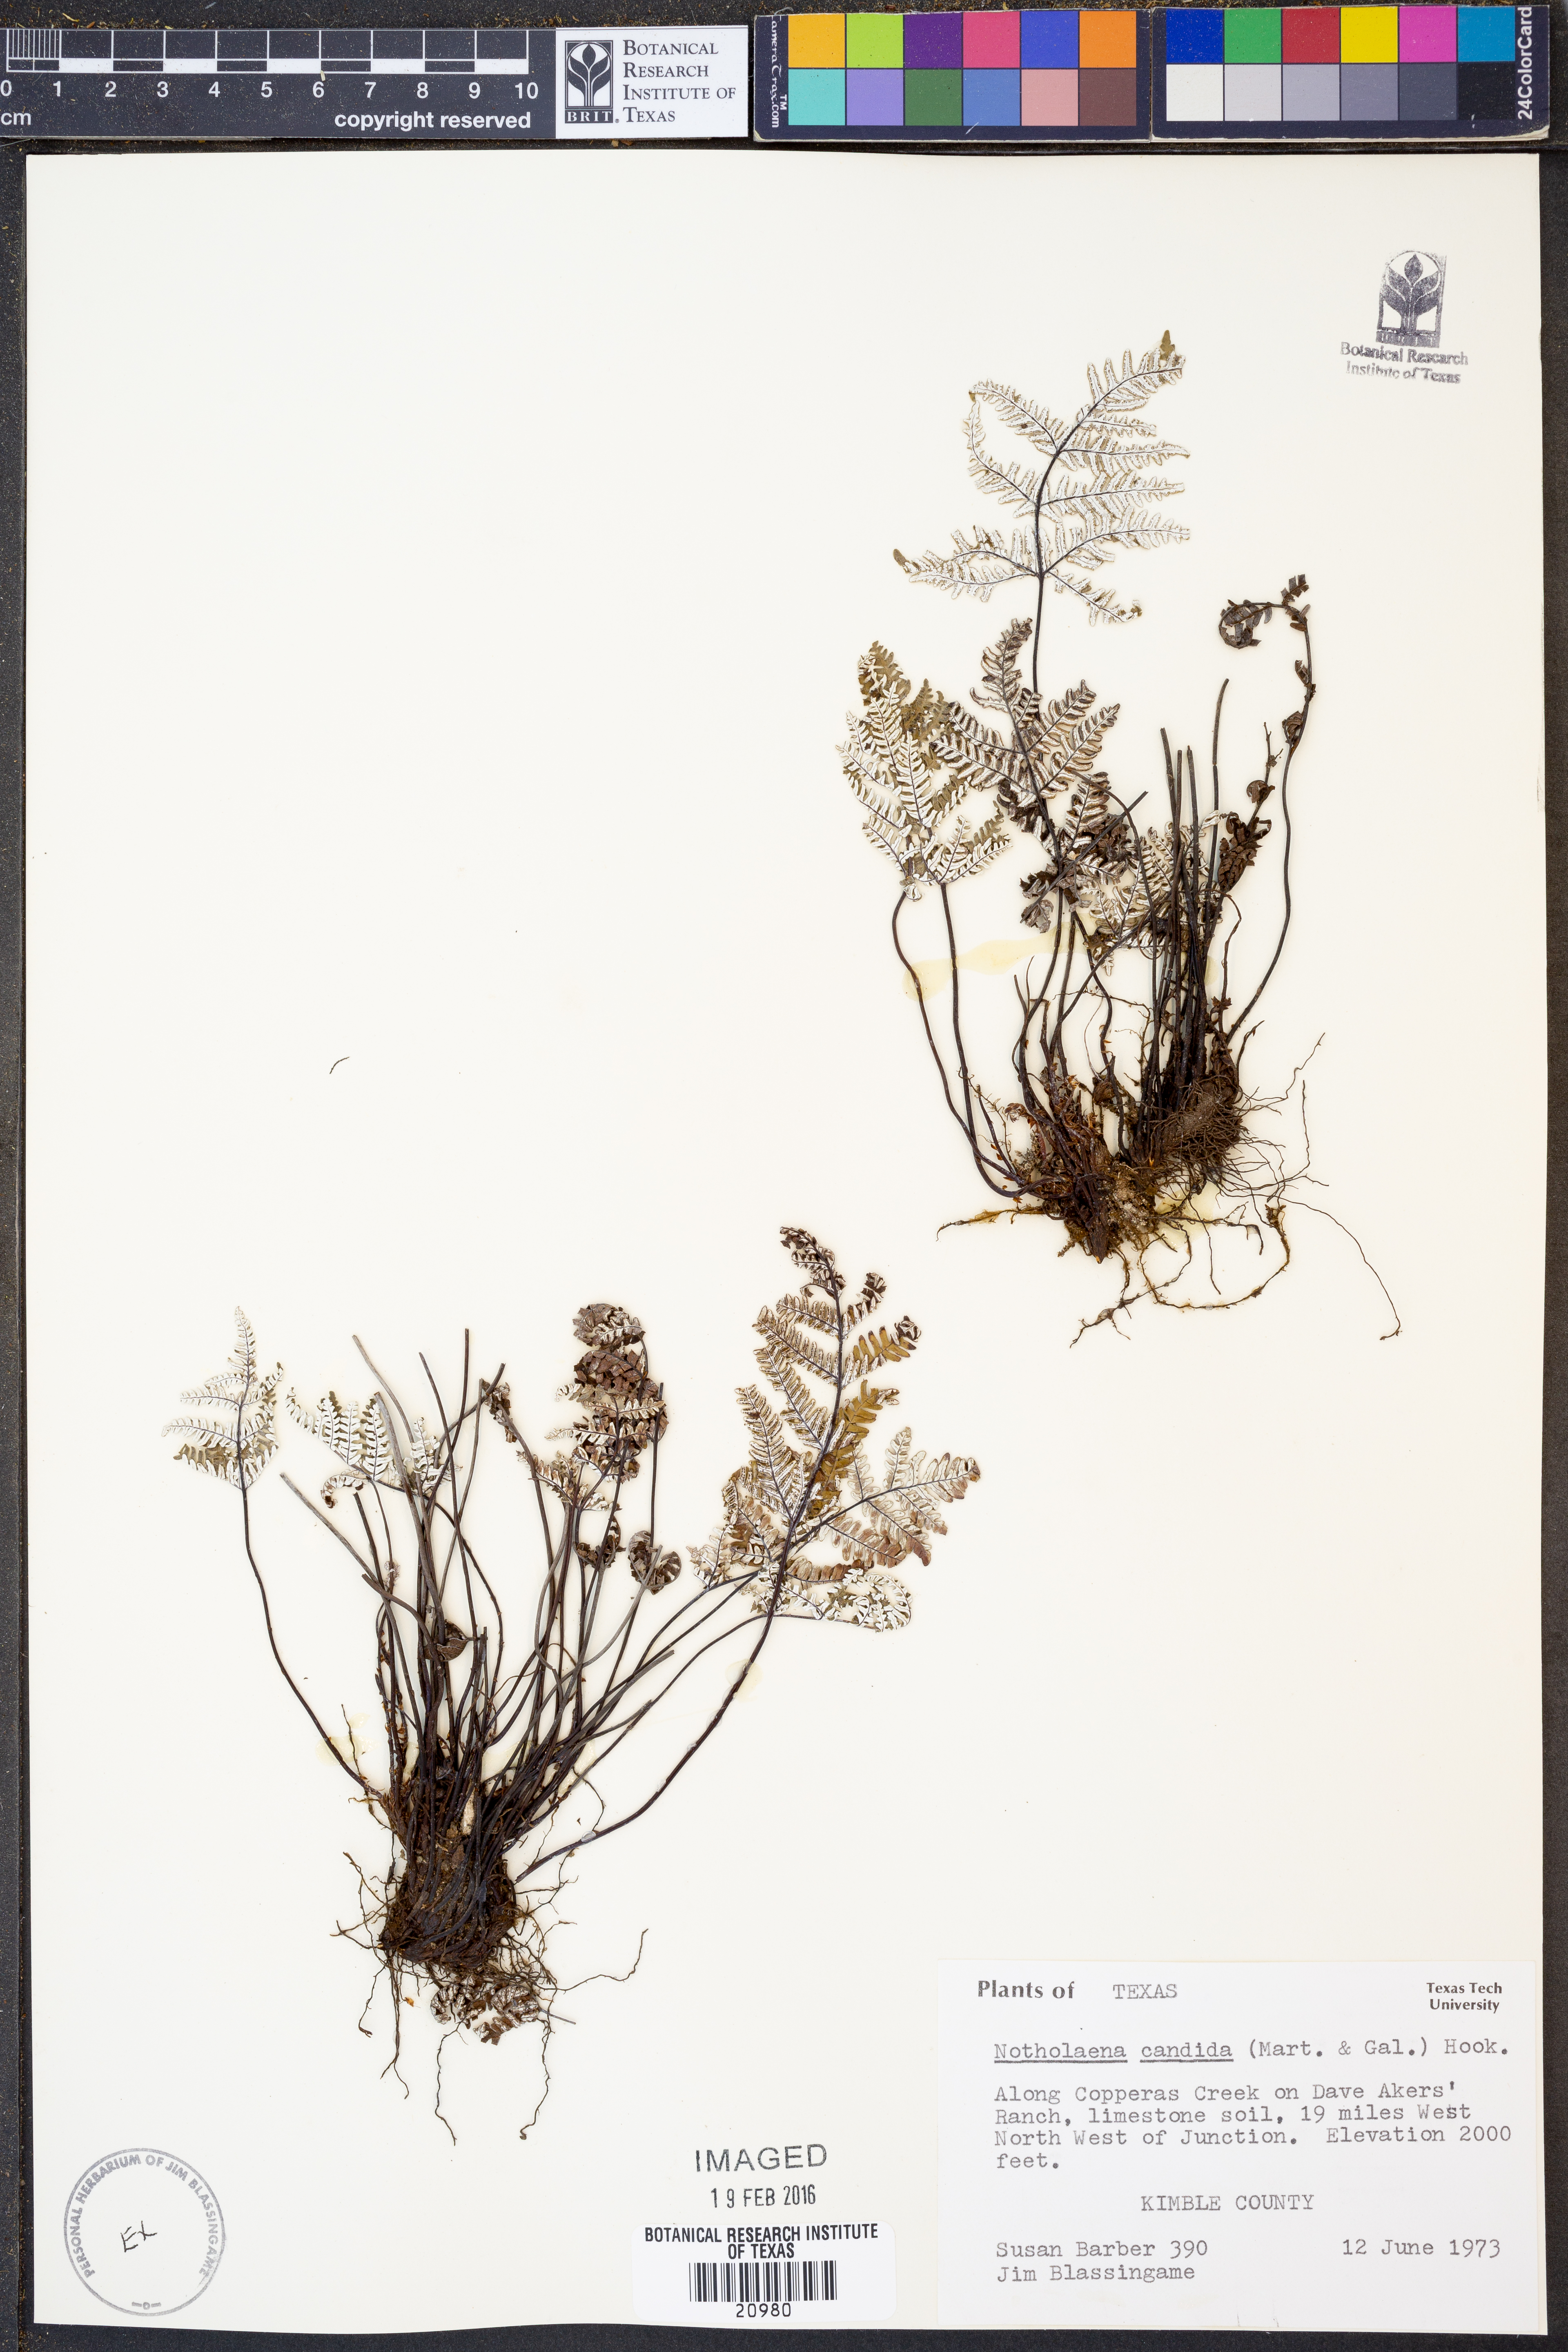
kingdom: Plantae
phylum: Tracheophyta
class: Polypodiopsida
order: Polypodiales
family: Pteridaceae
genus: Notholaena
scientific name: Notholaena candida
